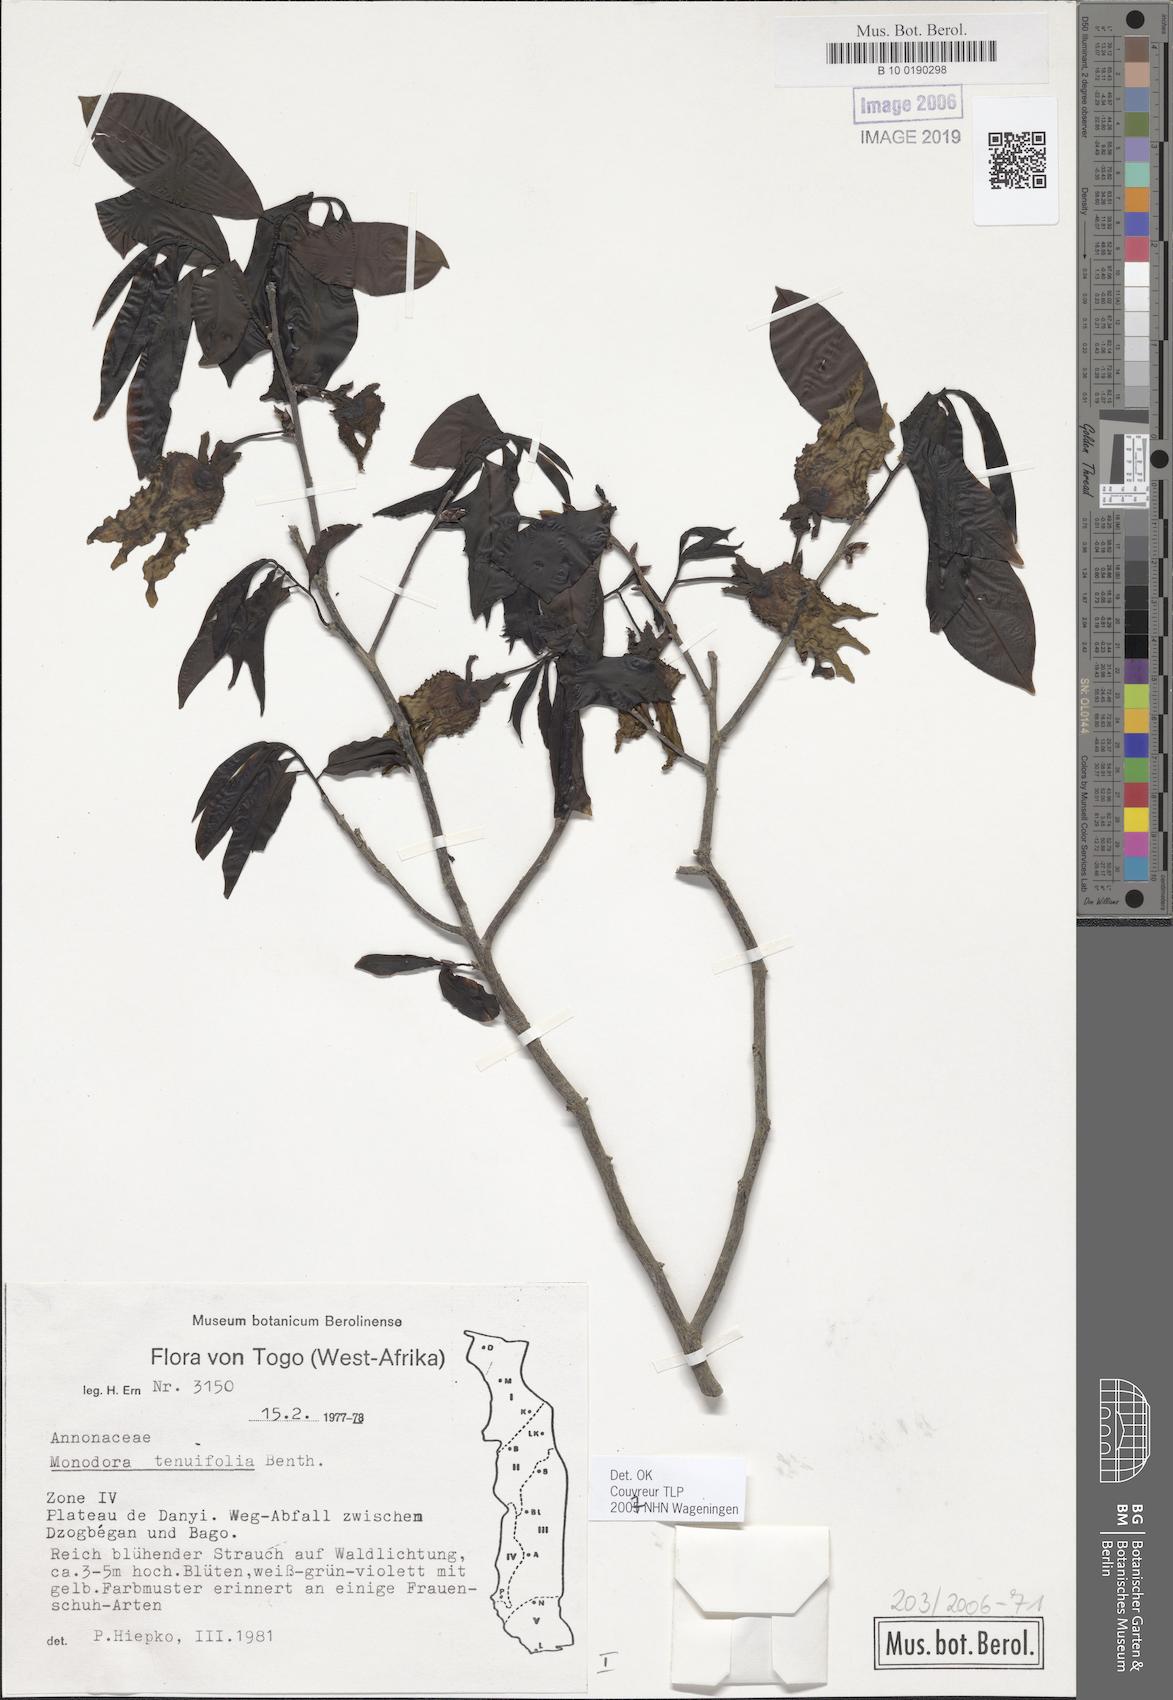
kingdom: Plantae
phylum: Tracheophyta
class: Magnoliopsida
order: Magnoliales
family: Annonaceae
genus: Monodora
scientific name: Monodora tenuifolia
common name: Orchidtree
